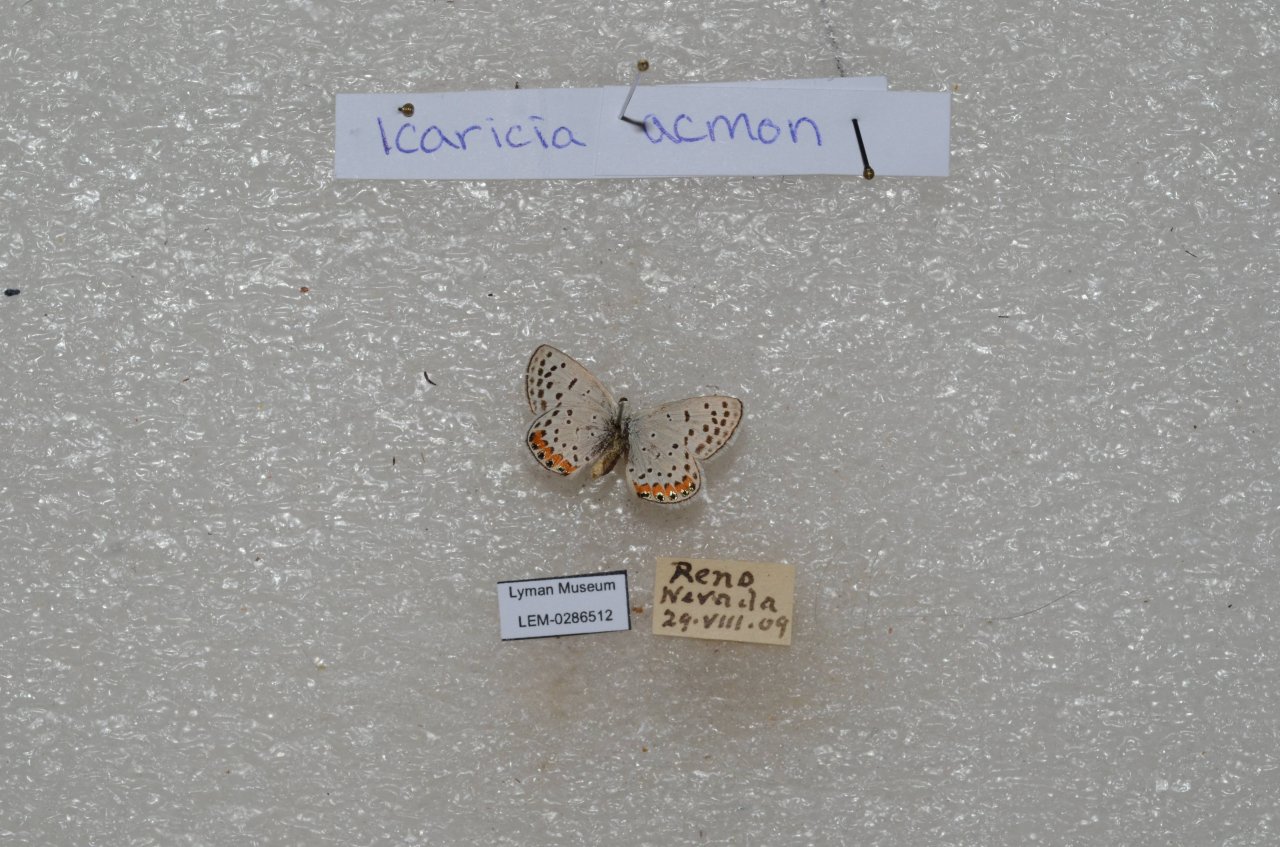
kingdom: Animalia
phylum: Arthropoda
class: Insecta
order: Lepidoptera
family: Lycaenidae
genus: Plebejus
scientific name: Plebejus
